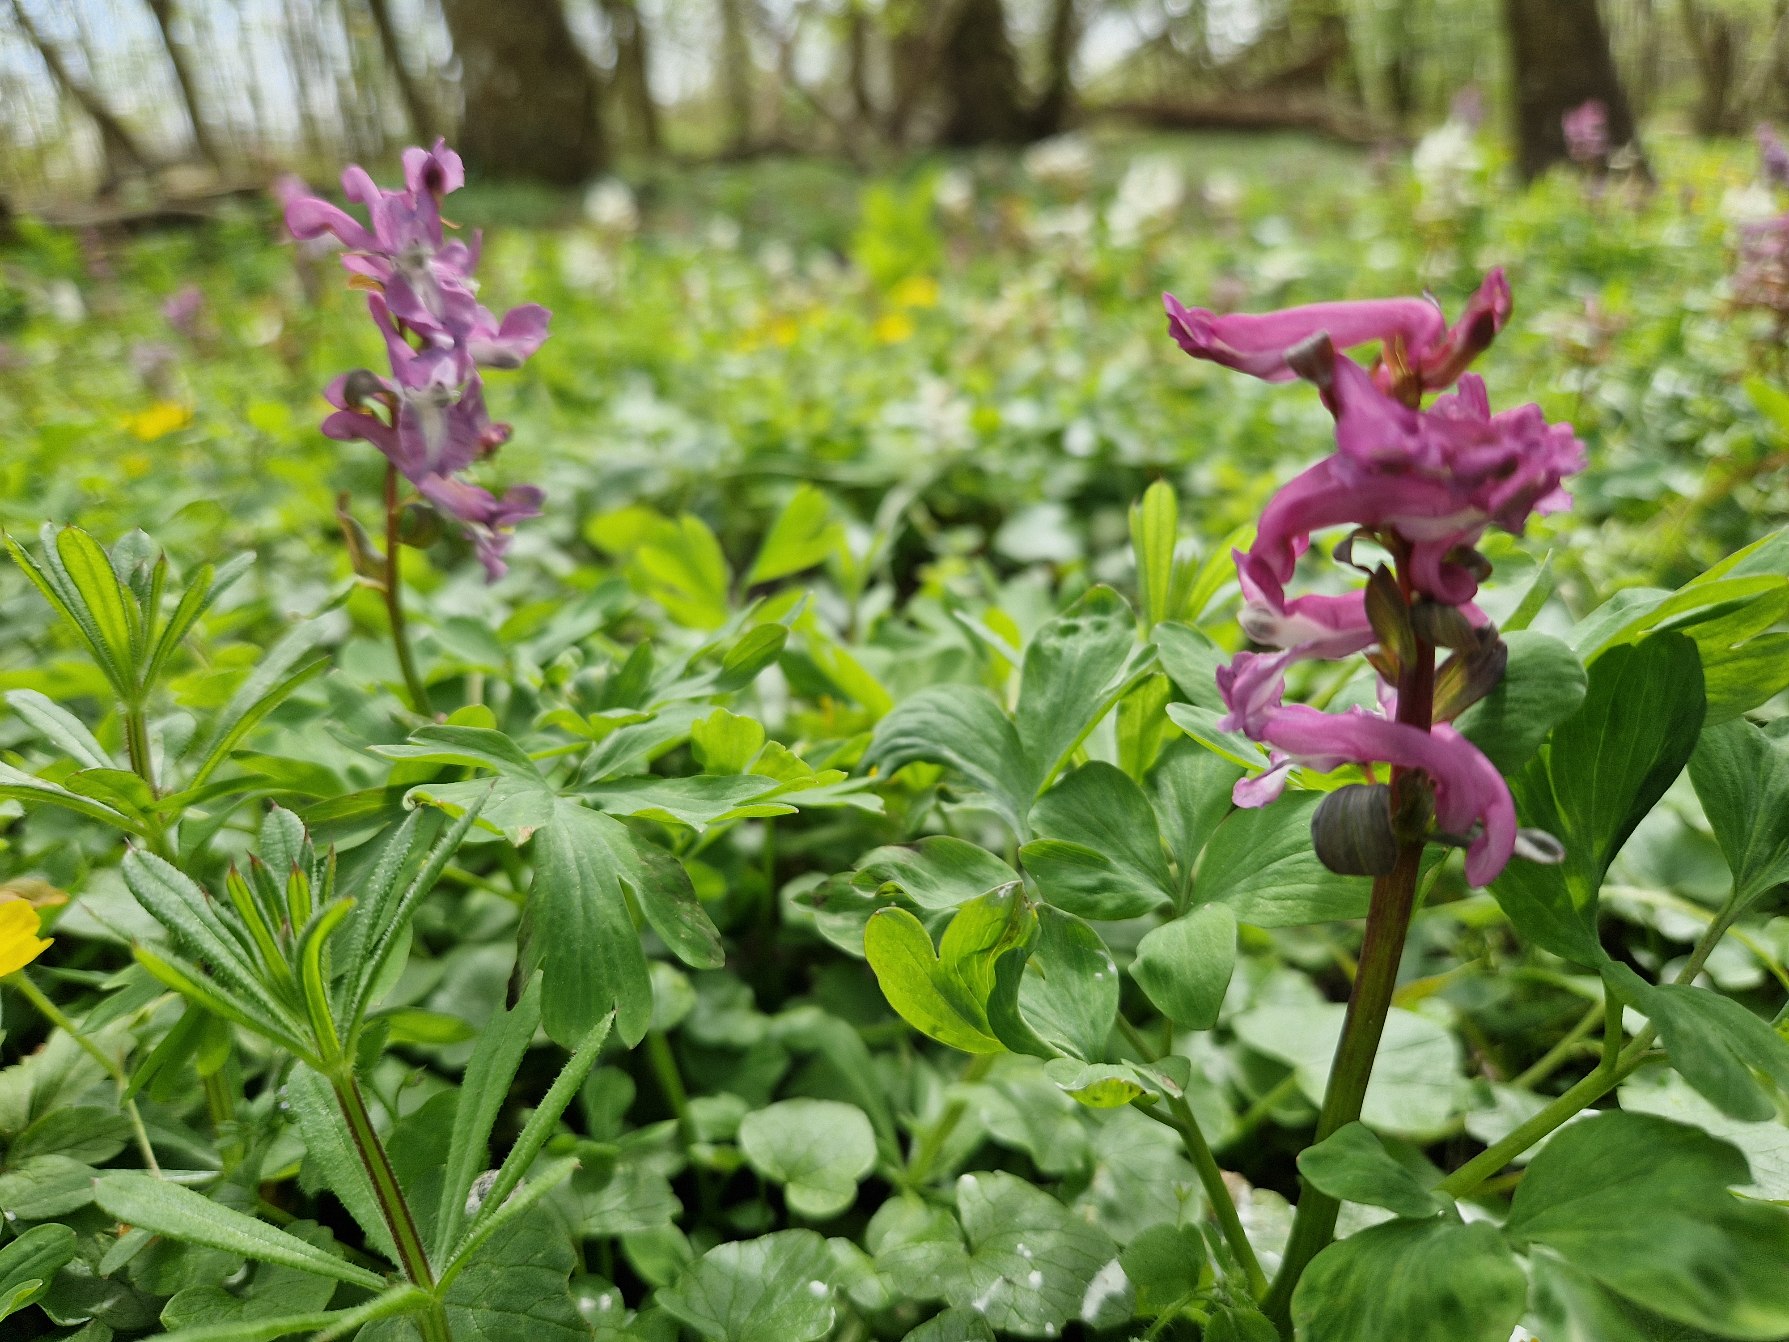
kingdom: Plantae
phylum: Tracheophyta
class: Magnoliopsida
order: Ranunculales
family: Papaveraceae
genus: Corydalis
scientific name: Corydalis solida
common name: Langstilket lærkespore
